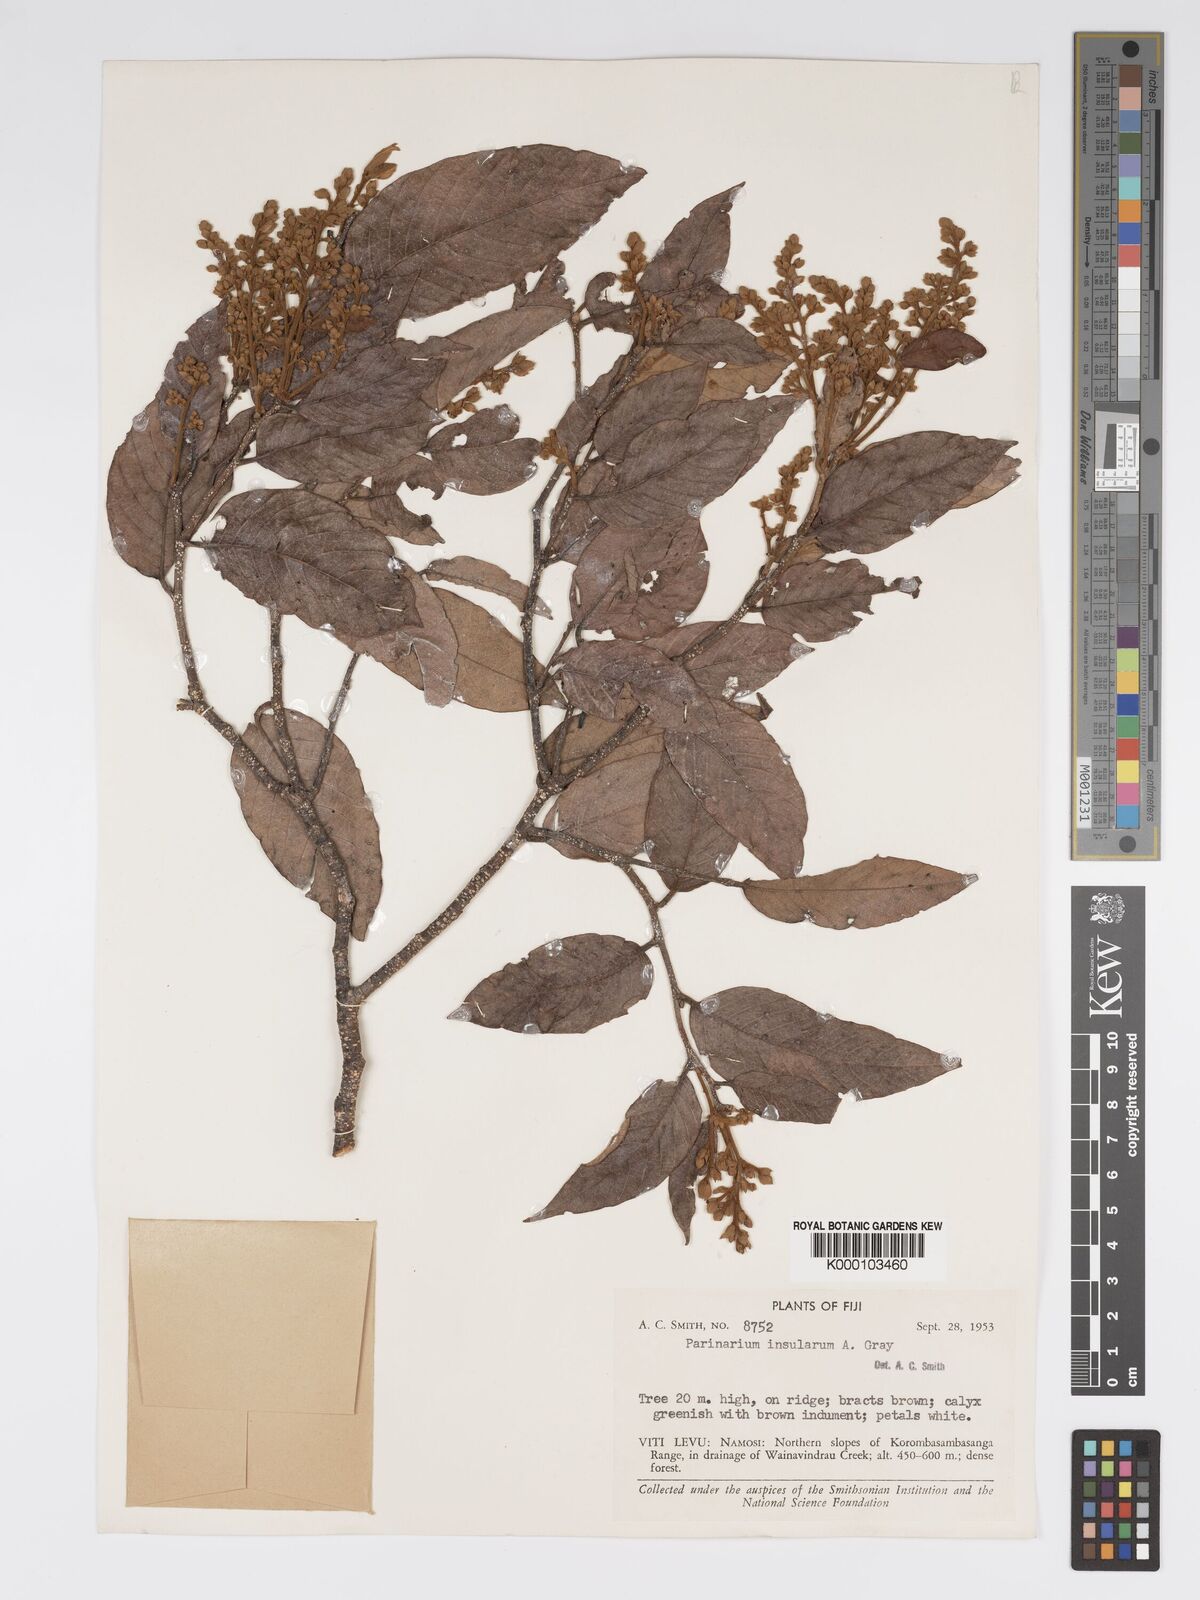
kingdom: Plantae
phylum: Tracheophyta
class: Magnoliopsida
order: Malpighiales
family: Chrysobalanaceae
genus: Parinari
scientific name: Parinari insularum
